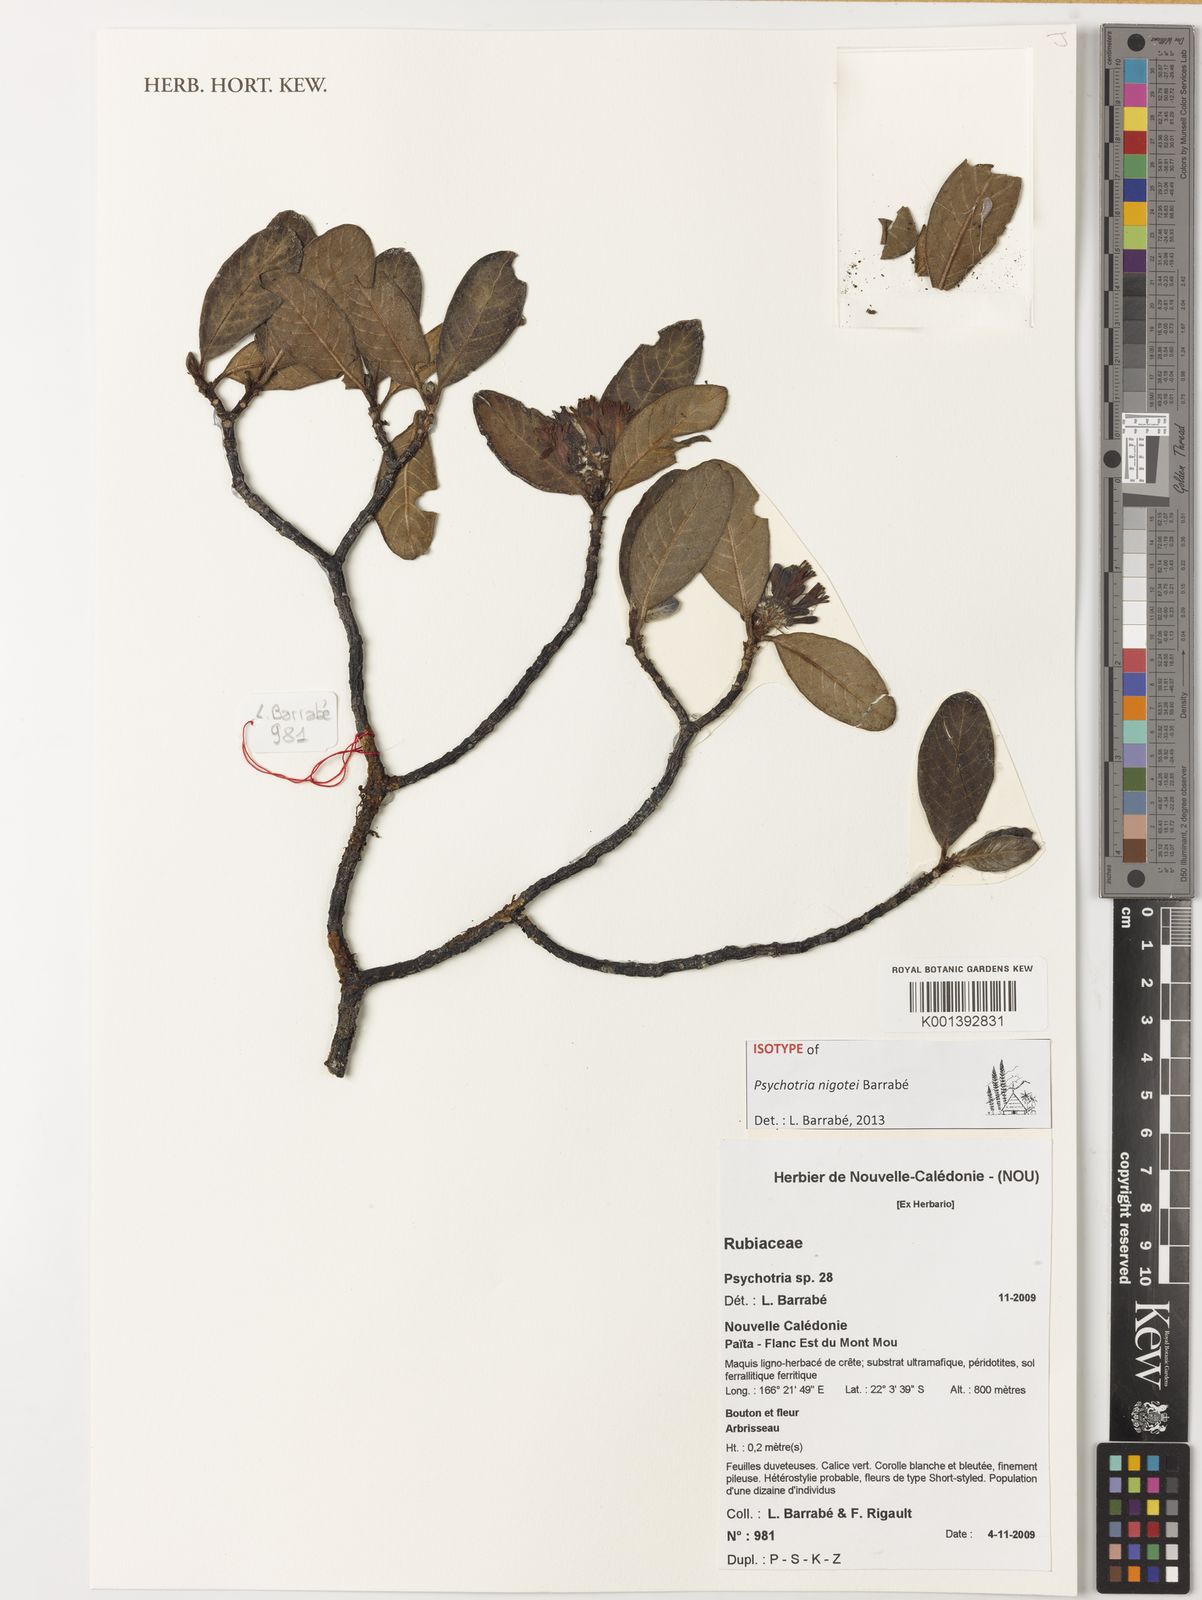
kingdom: Plantae
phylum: Tracheophyta
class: Magnoliopsida
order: Gentianales
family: Rubiaceae
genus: Psychotria
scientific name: Psychotria
